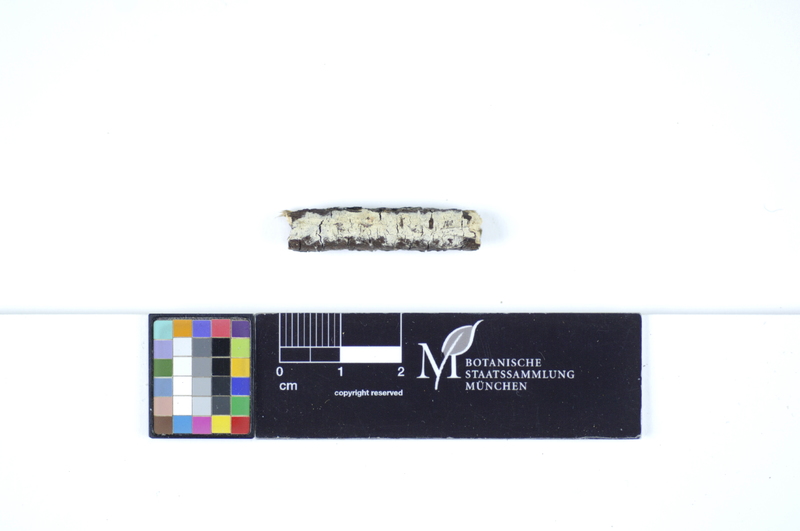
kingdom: Plantae
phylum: Tracheophyta
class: Magnoliopsida
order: Dipsacales
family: Caprifoliaceae
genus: Lonicera
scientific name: Lonicera xylosteum
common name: Fly honeysuckle
